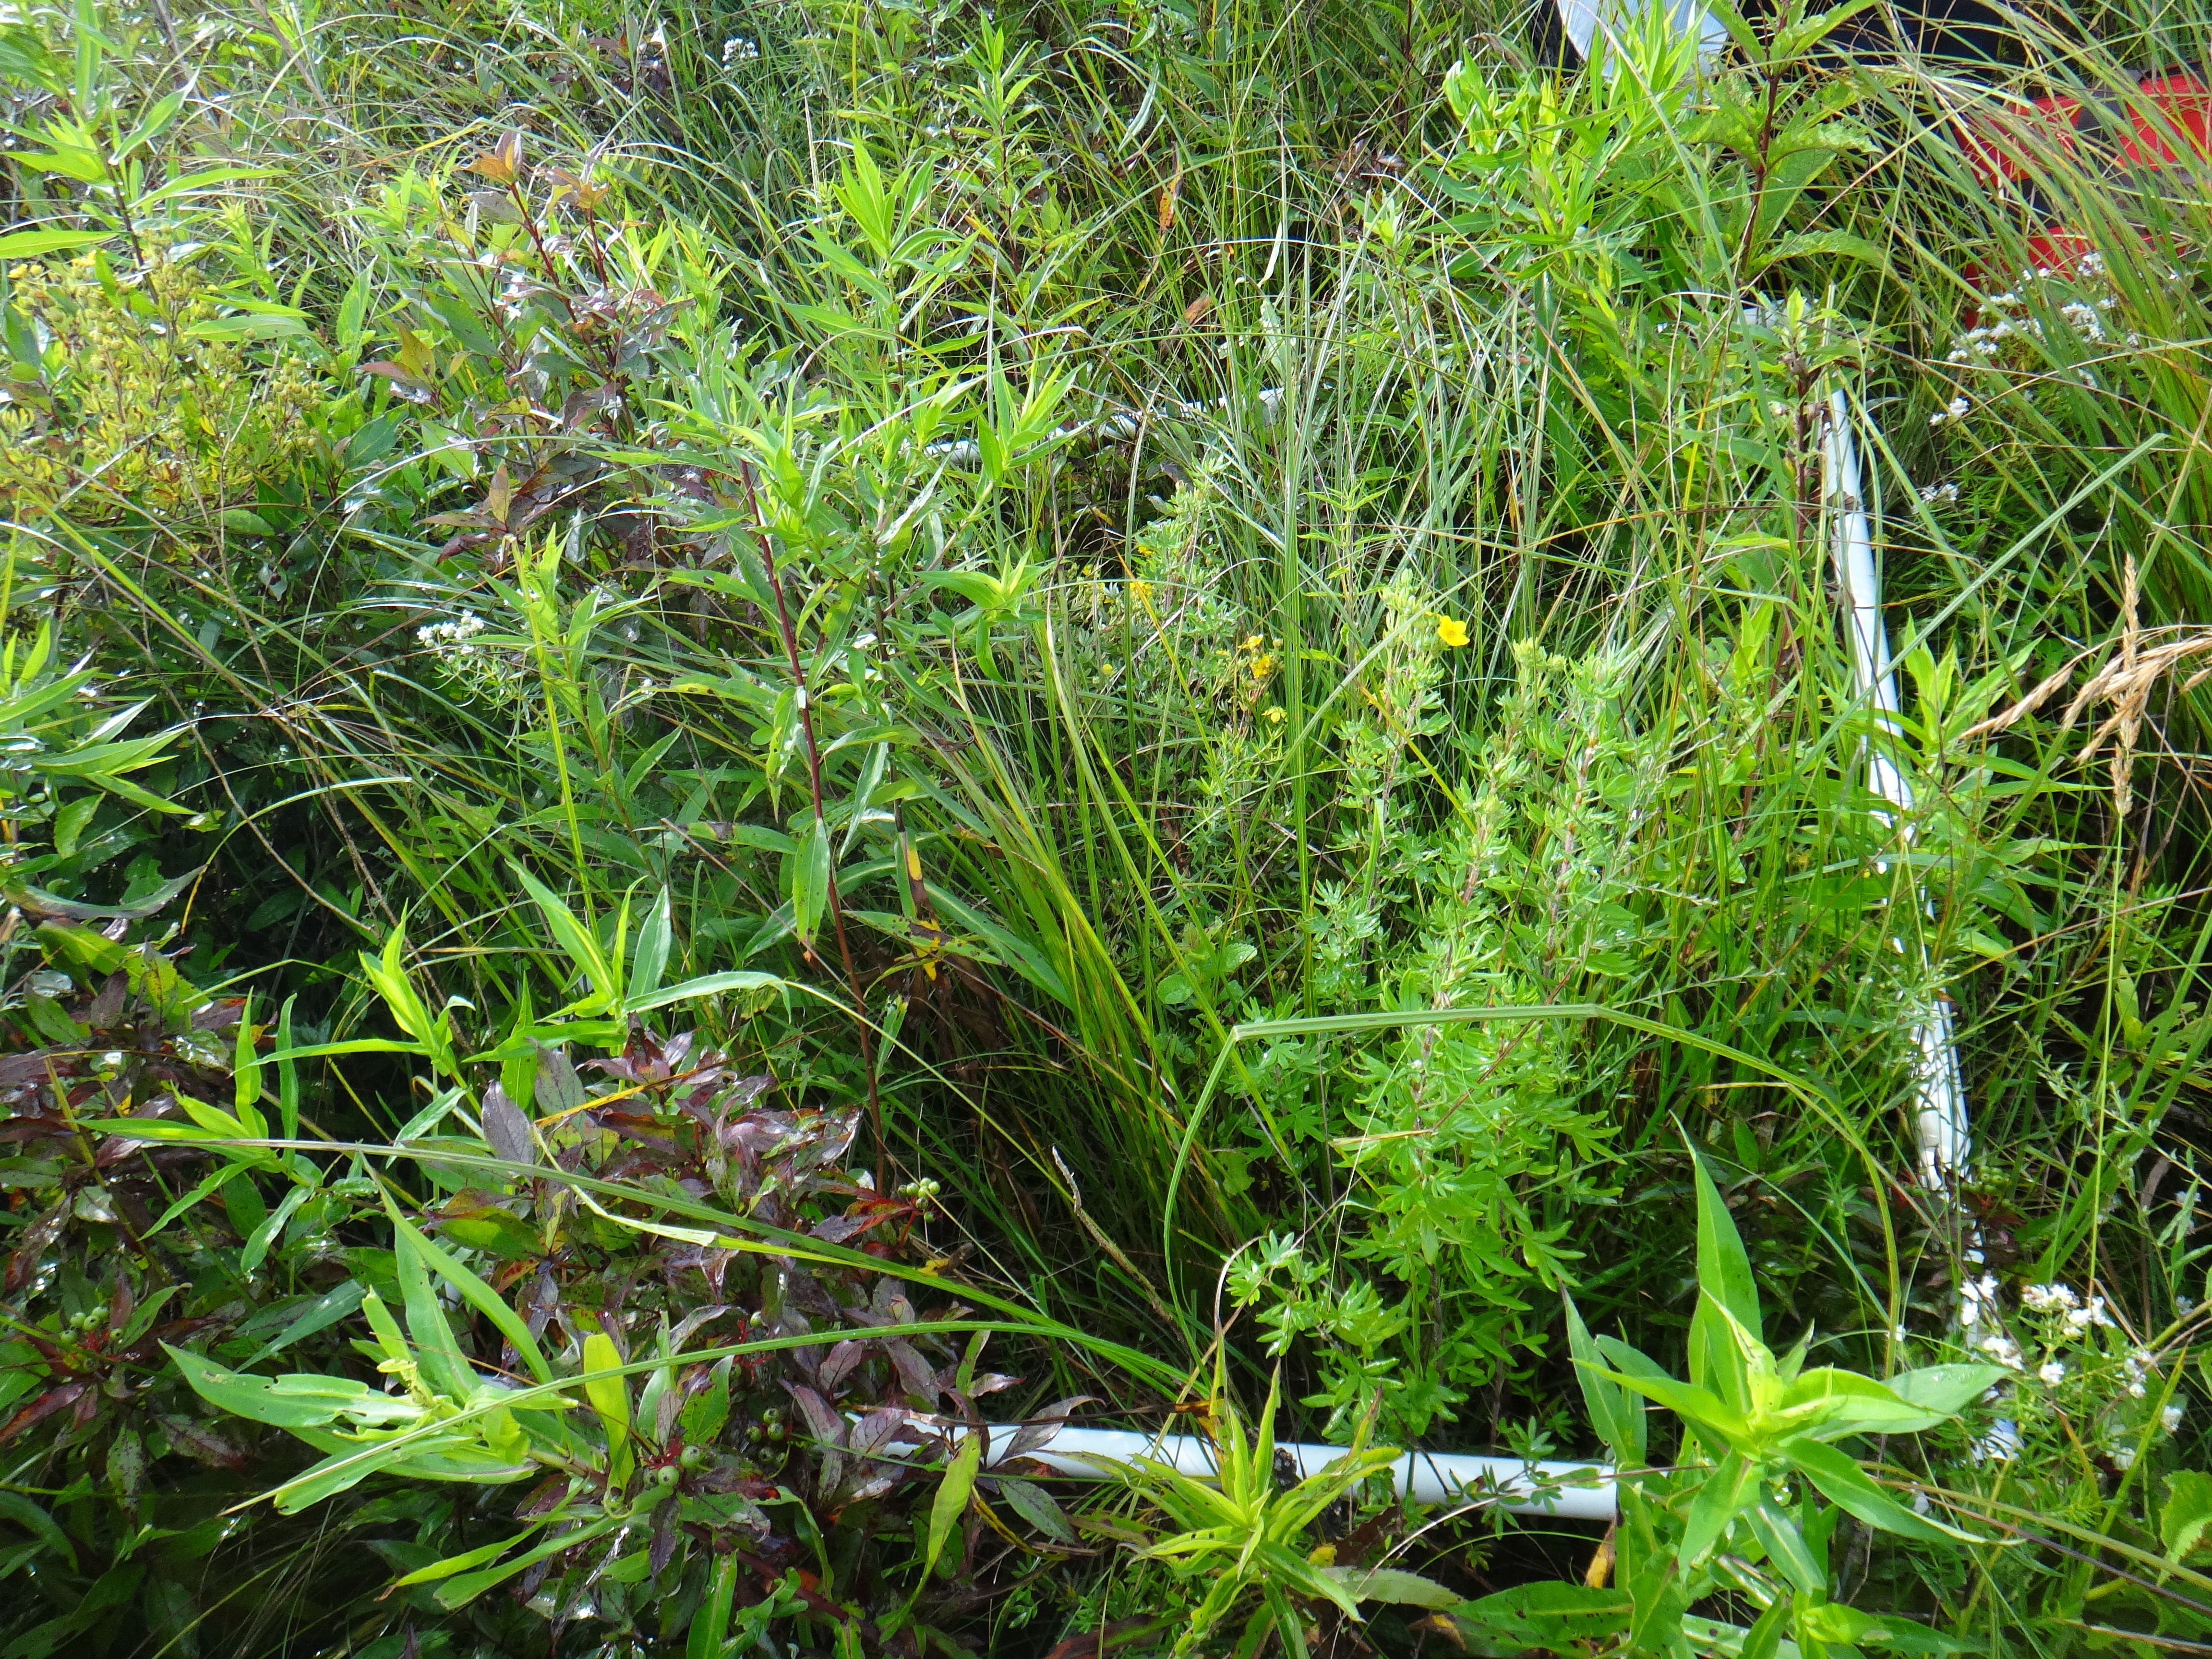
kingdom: Plantae
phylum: Tracheophyta
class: Magnoliopsida
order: Lamiales
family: Lamiaceae
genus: Lycopus
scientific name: Lycopus americanus
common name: American bugleweed
